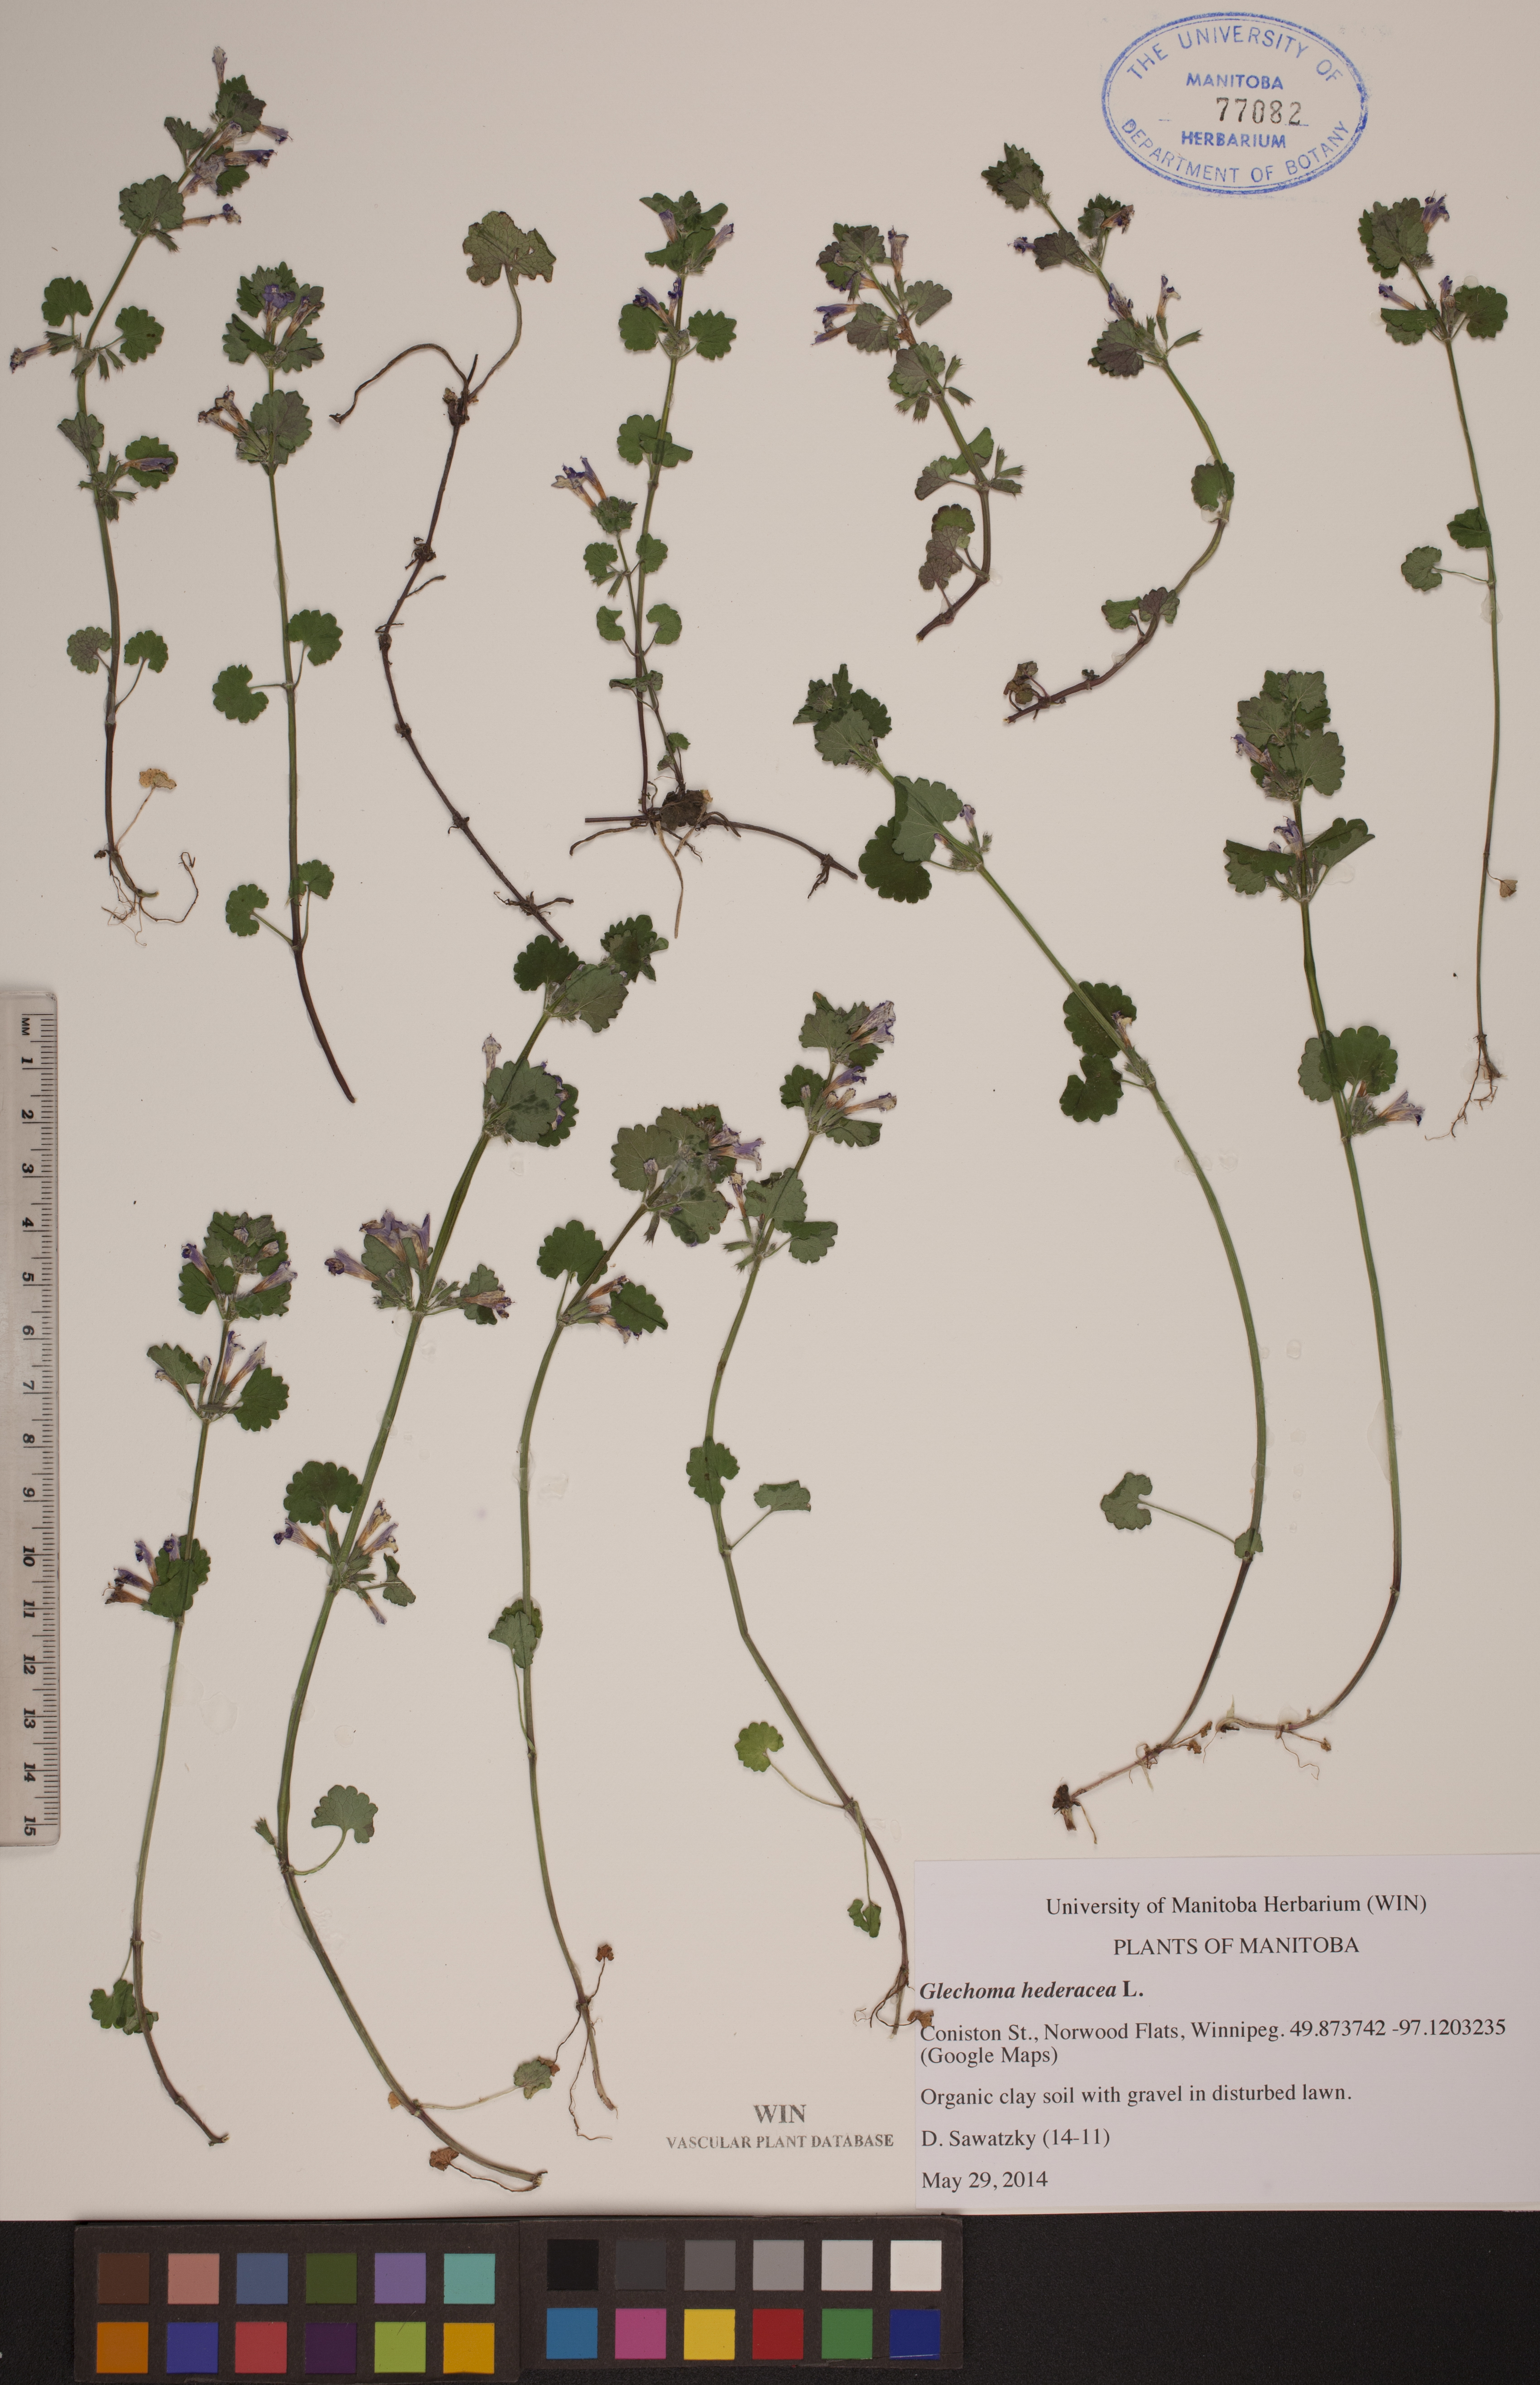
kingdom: Plantae
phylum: Tracheophyta
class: Magnoliopsida
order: Lamiales
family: Lamiaceae
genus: Glechoma
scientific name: Glechoma hederacea
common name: Ground ivy
